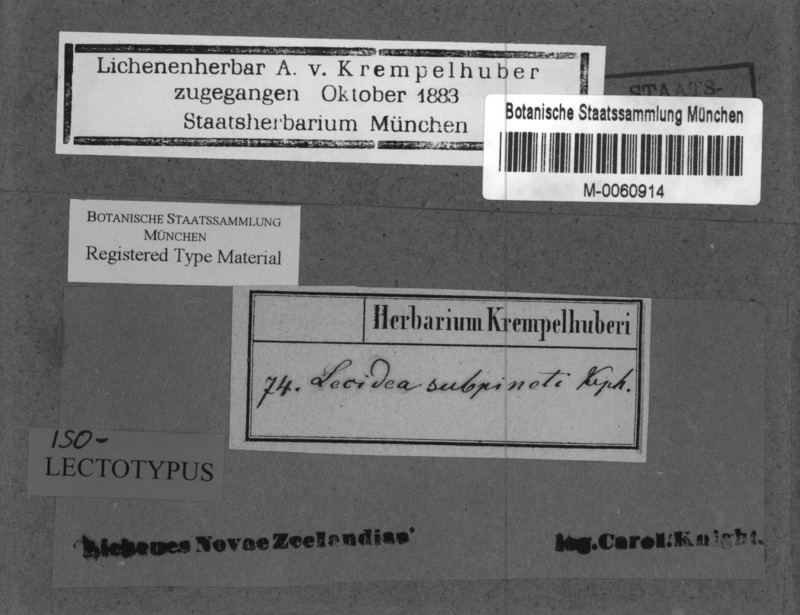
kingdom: Fungi
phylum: Ascomycota
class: Lecanoromycetes
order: Lecanorales
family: Malmideaceae
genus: Australidea
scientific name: Australidea canorufescens
